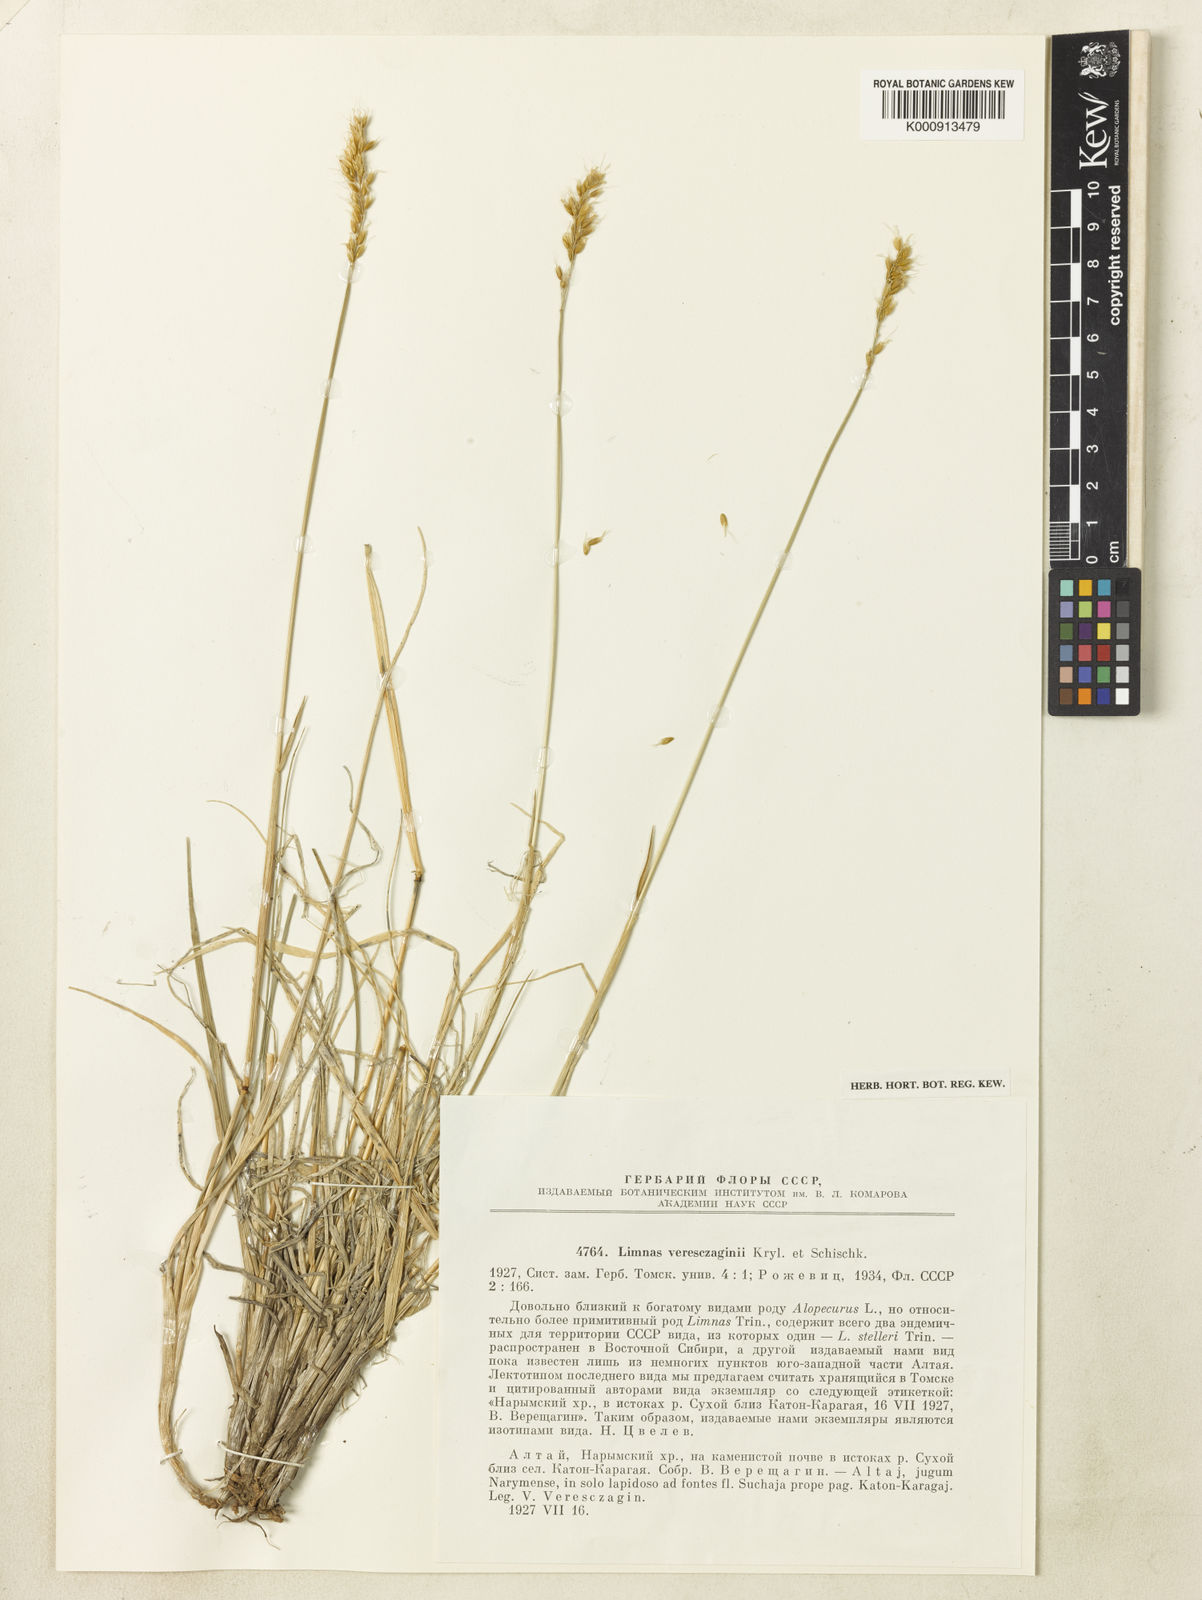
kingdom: Plantae
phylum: Tracheophyta
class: Liliopsida
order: Poales
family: Poaceae
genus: Limnas
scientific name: Limnas veresczaginii
